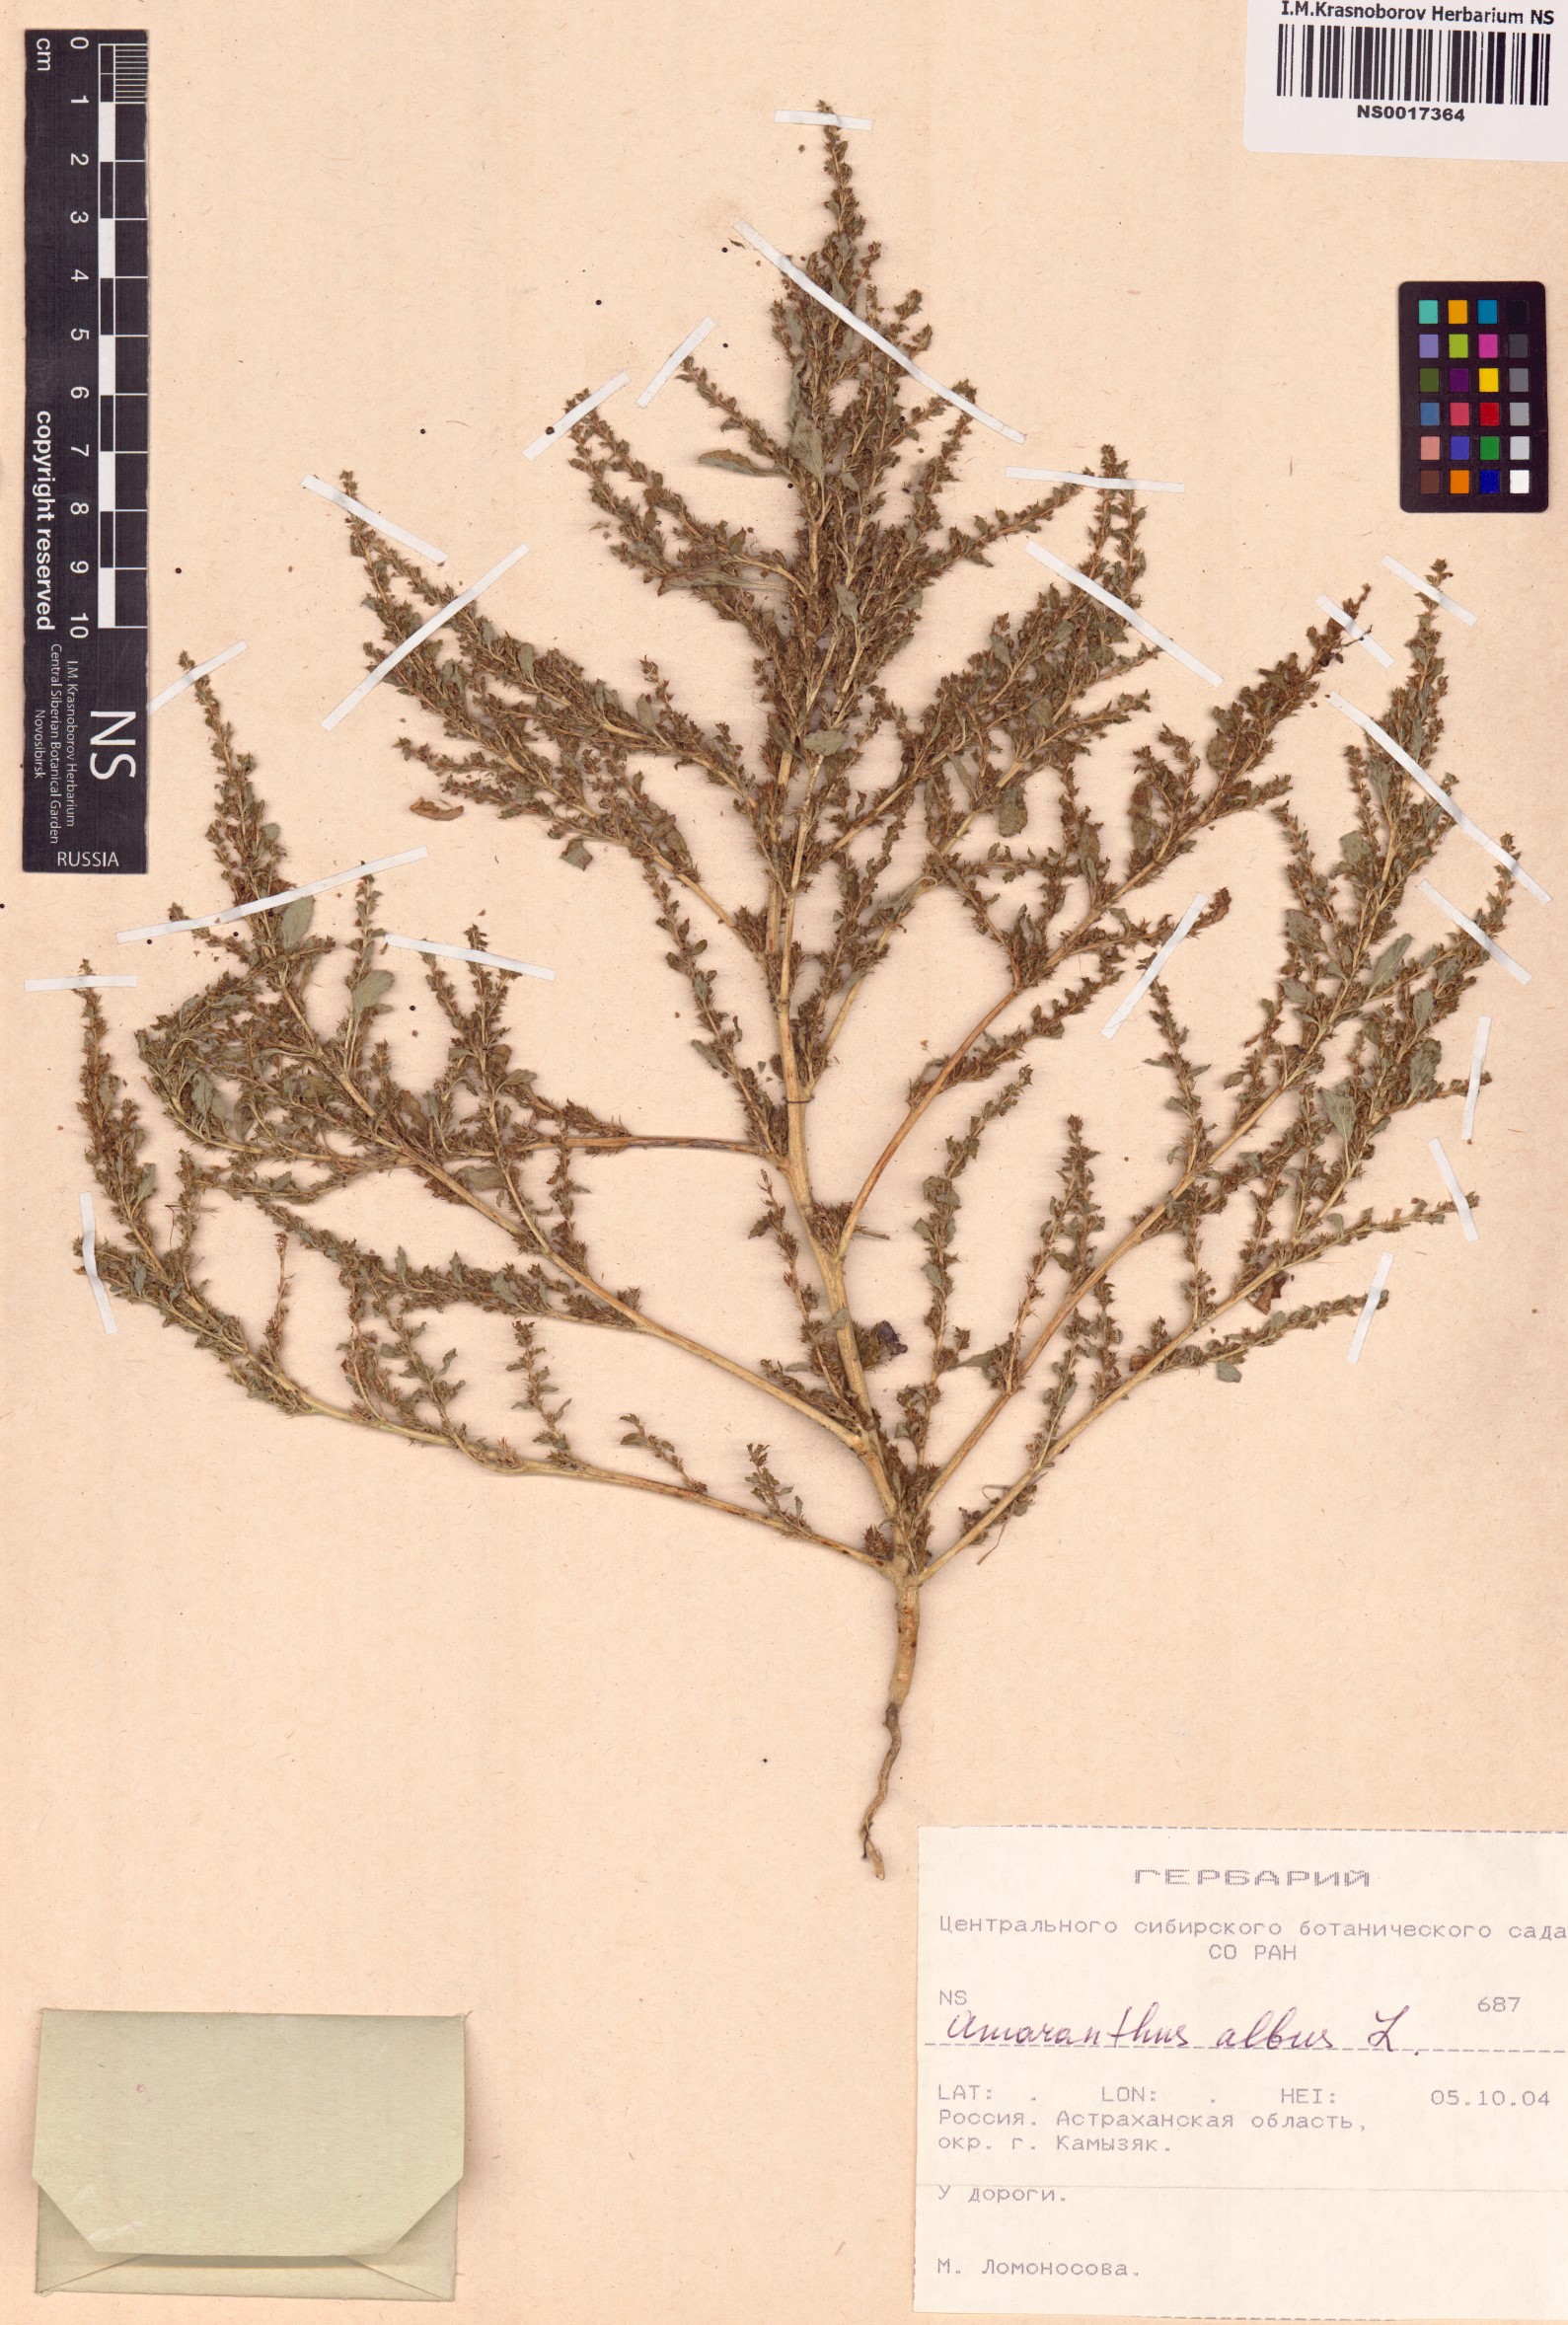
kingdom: Plantae
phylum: Tracheophyta
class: Magnoliopsida
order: Caryophyllales
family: Amaranthaceae
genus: Amaranthus
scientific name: Amaranthus albus
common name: White pigweed
